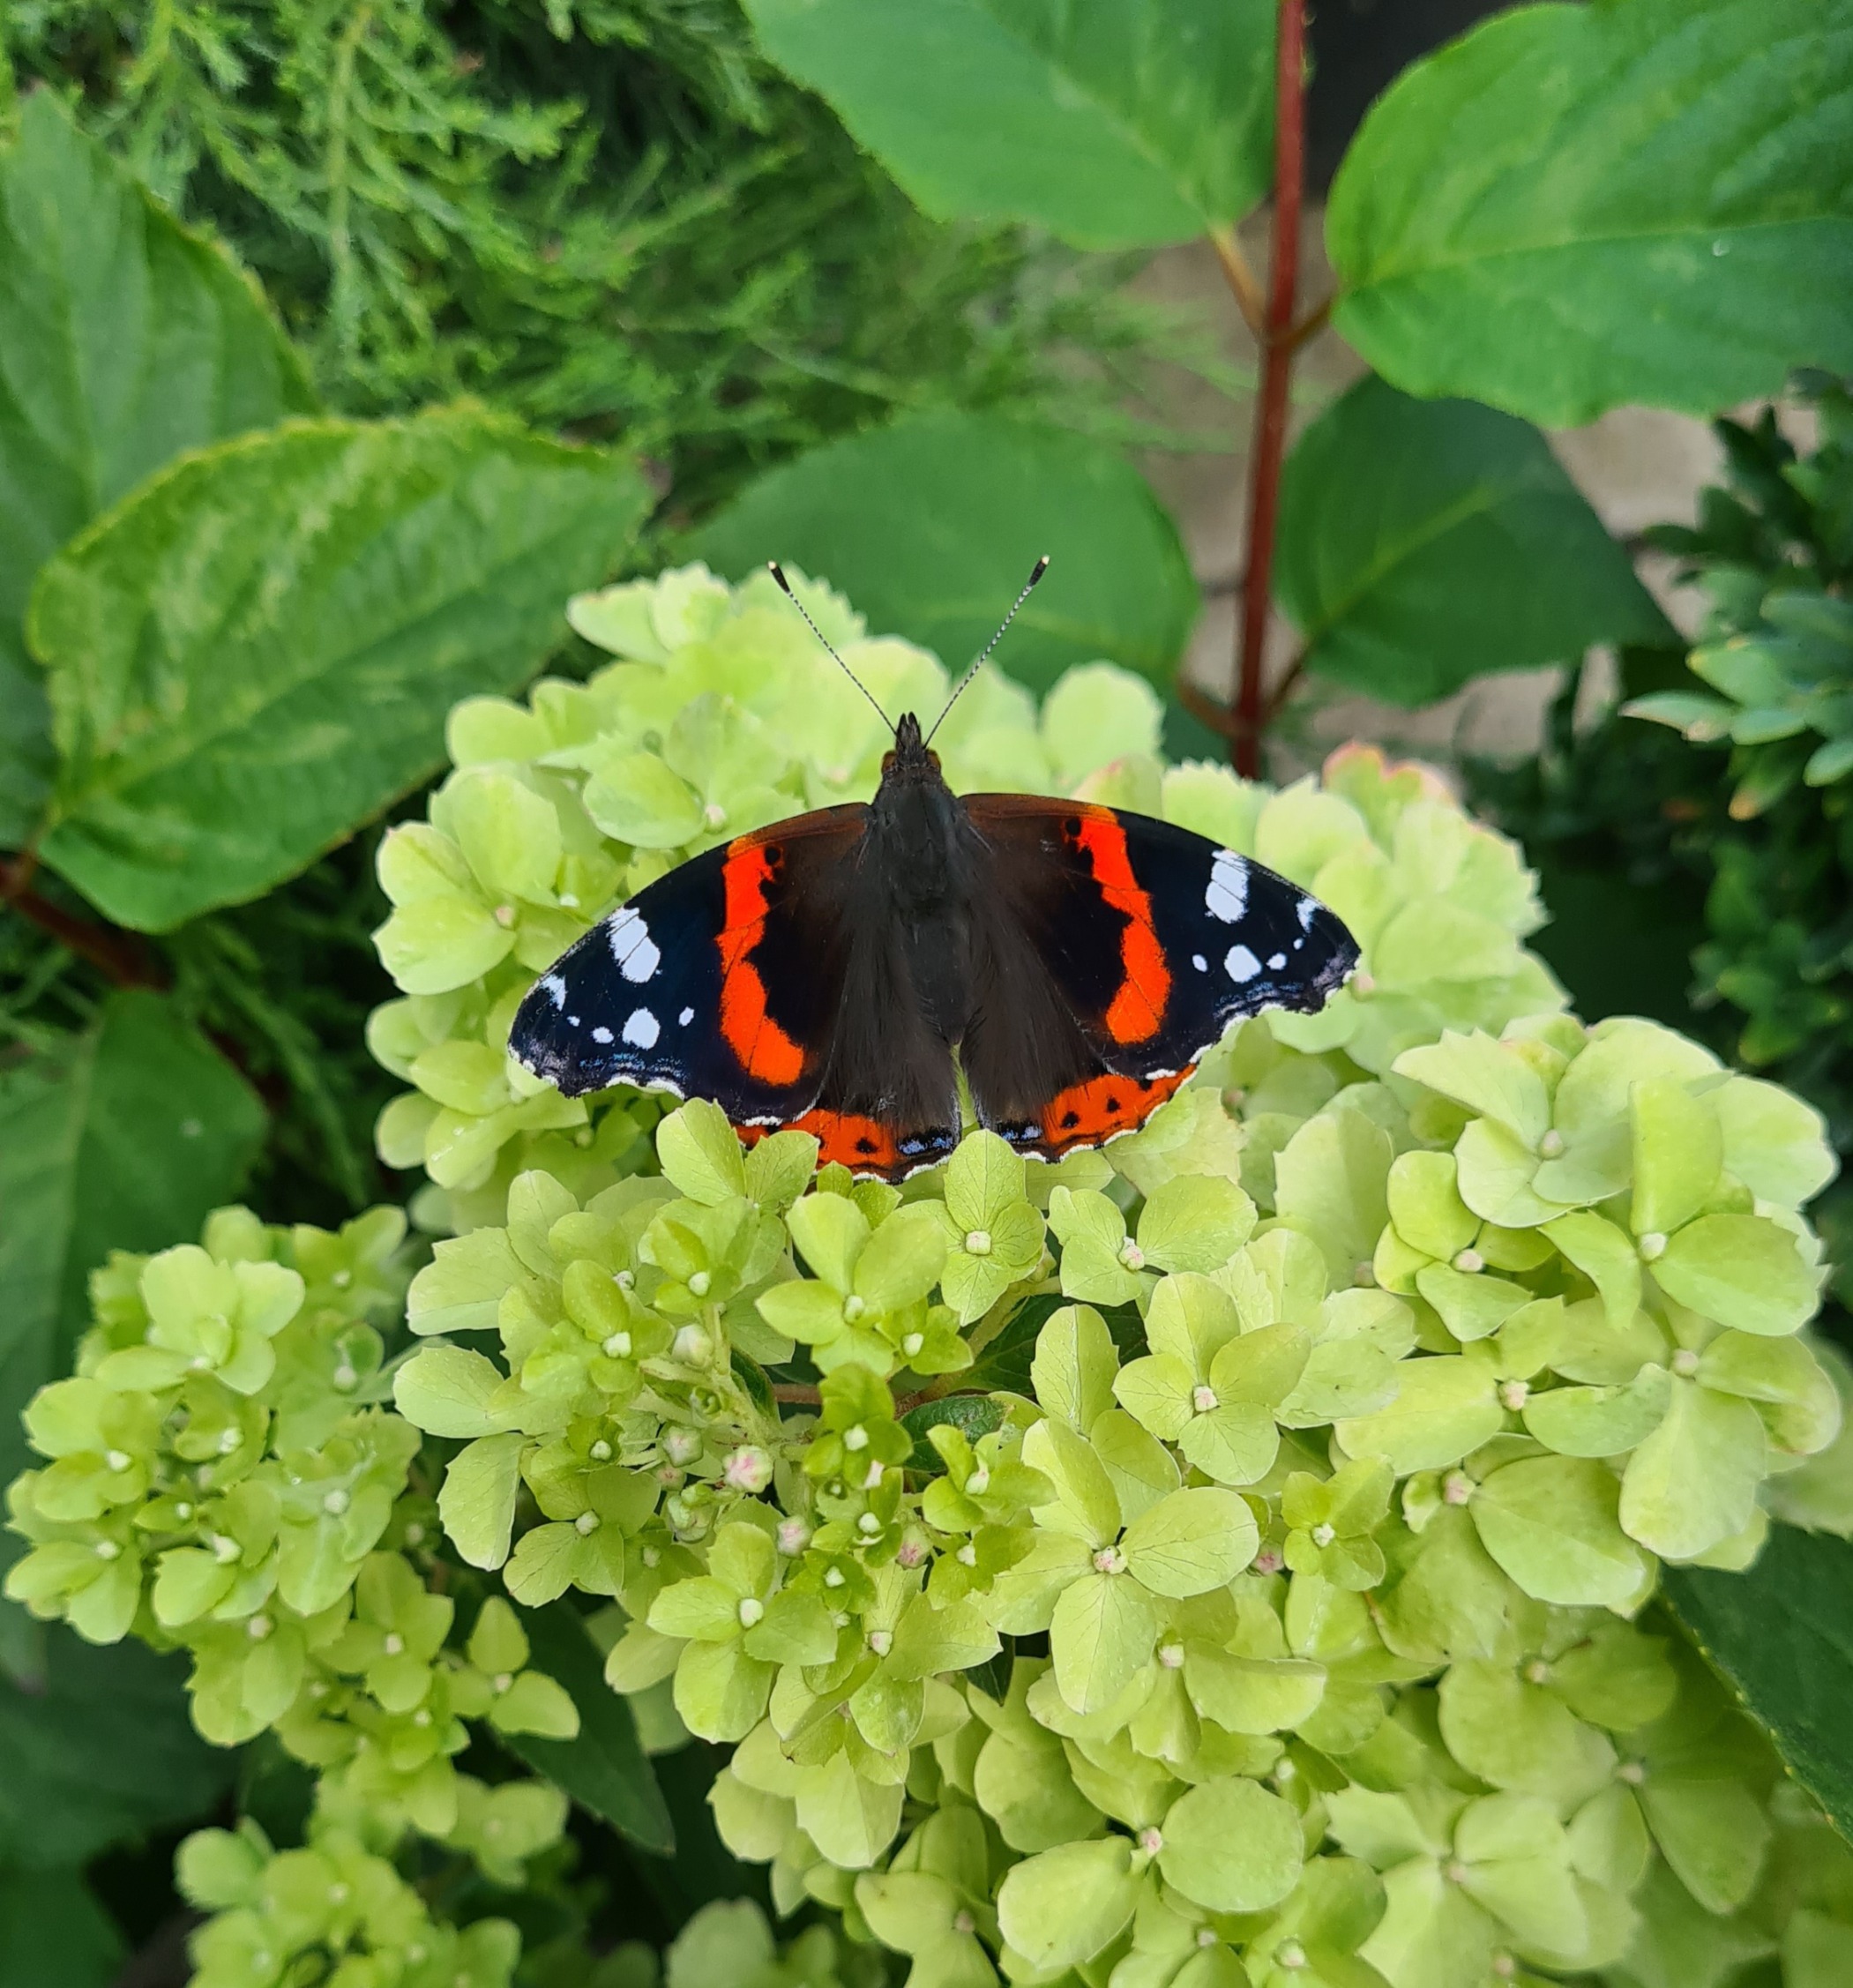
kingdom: Animalia
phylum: Arthropoda
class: Insecta
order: Lepidoptera
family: Nymphalidae
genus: Vanessa
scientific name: Vanessa atalanta
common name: Admiral
